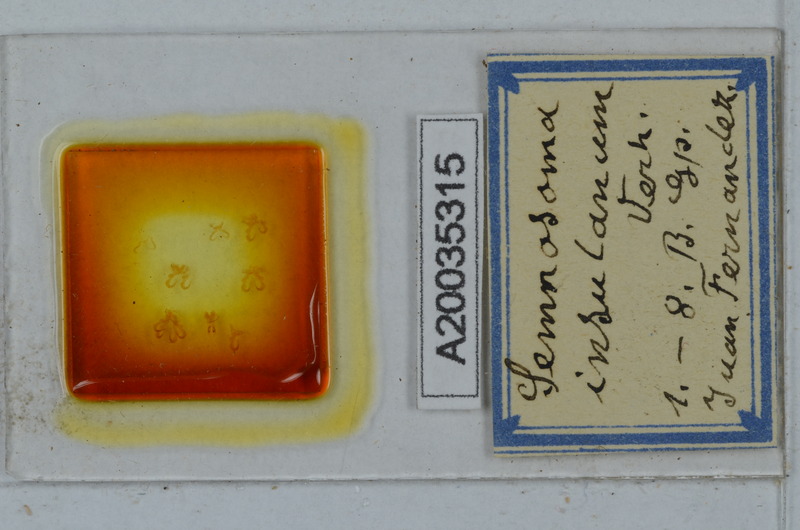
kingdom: Animalia
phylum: Arthropoda
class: Diplopoda
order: Polydesmida
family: Dalodesmidae
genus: Anaulacodesmus
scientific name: Anaulacodesmus insulanus
